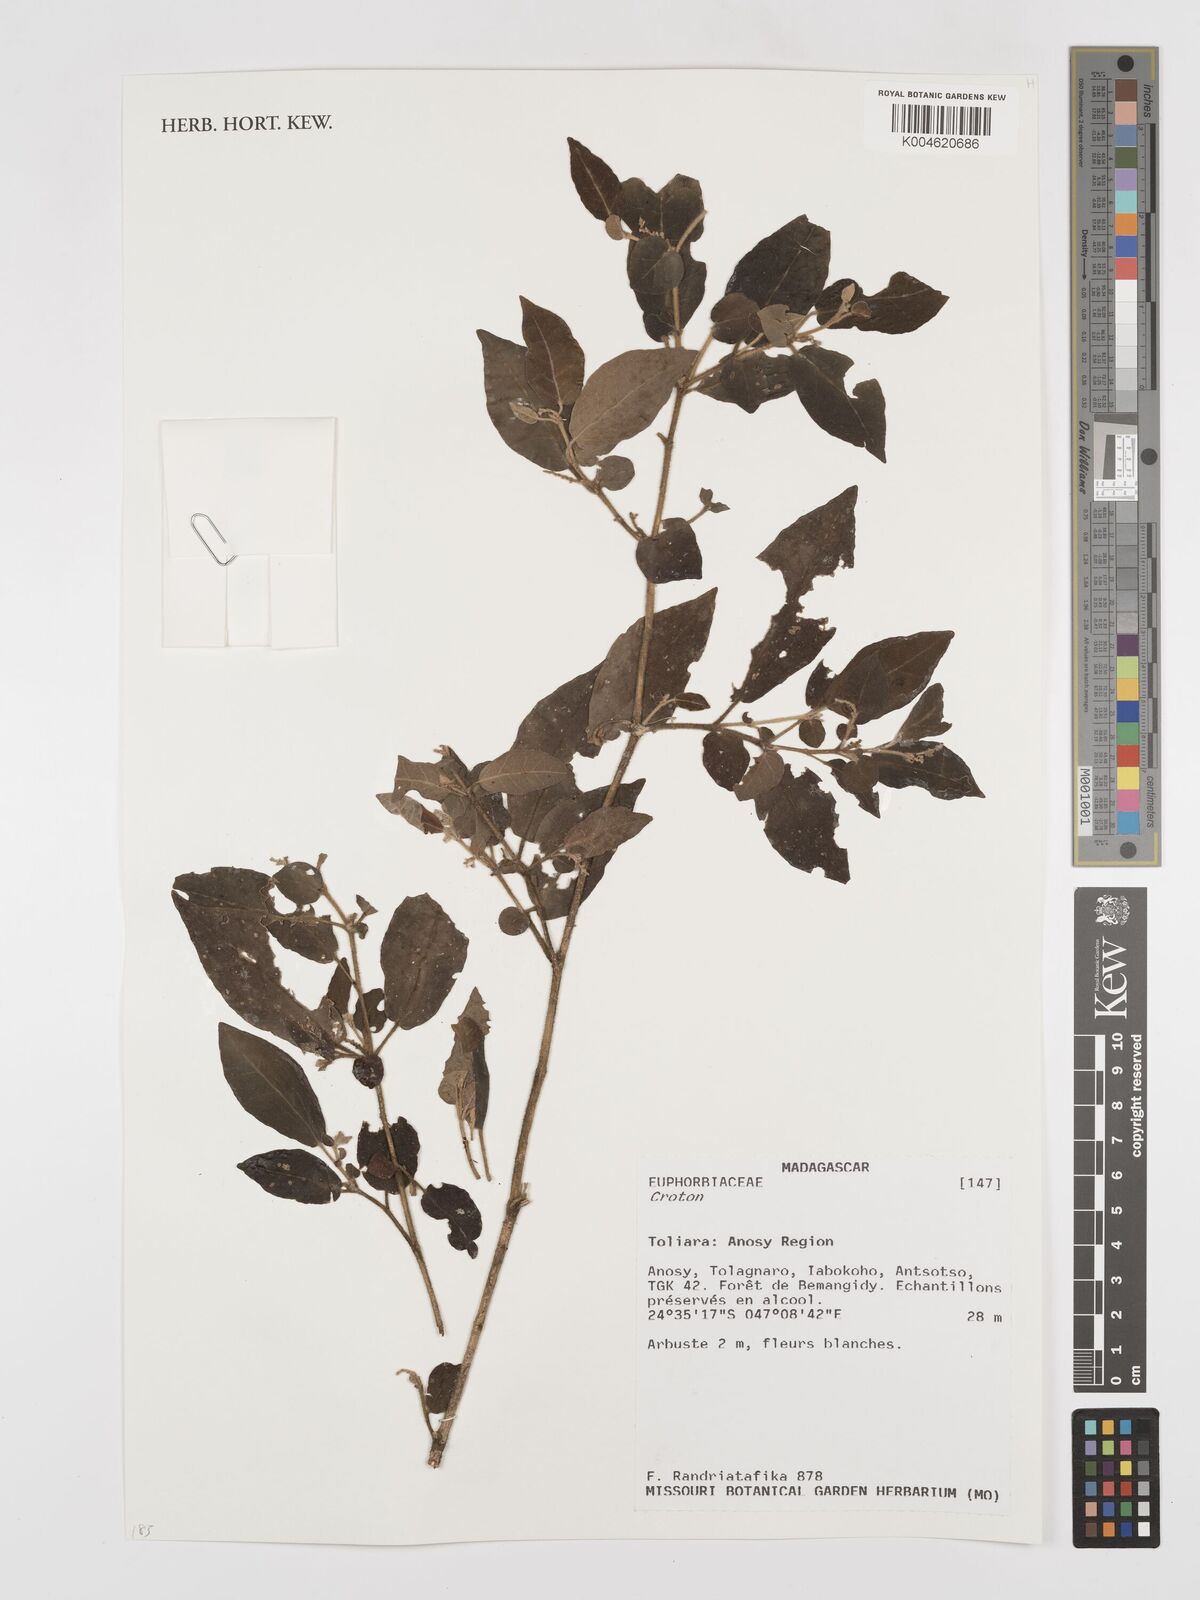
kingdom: Plantae
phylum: Tracheophyta
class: Magnoliopsida
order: Malpighiales
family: Euphorbiaceae
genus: Croton
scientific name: Croton
